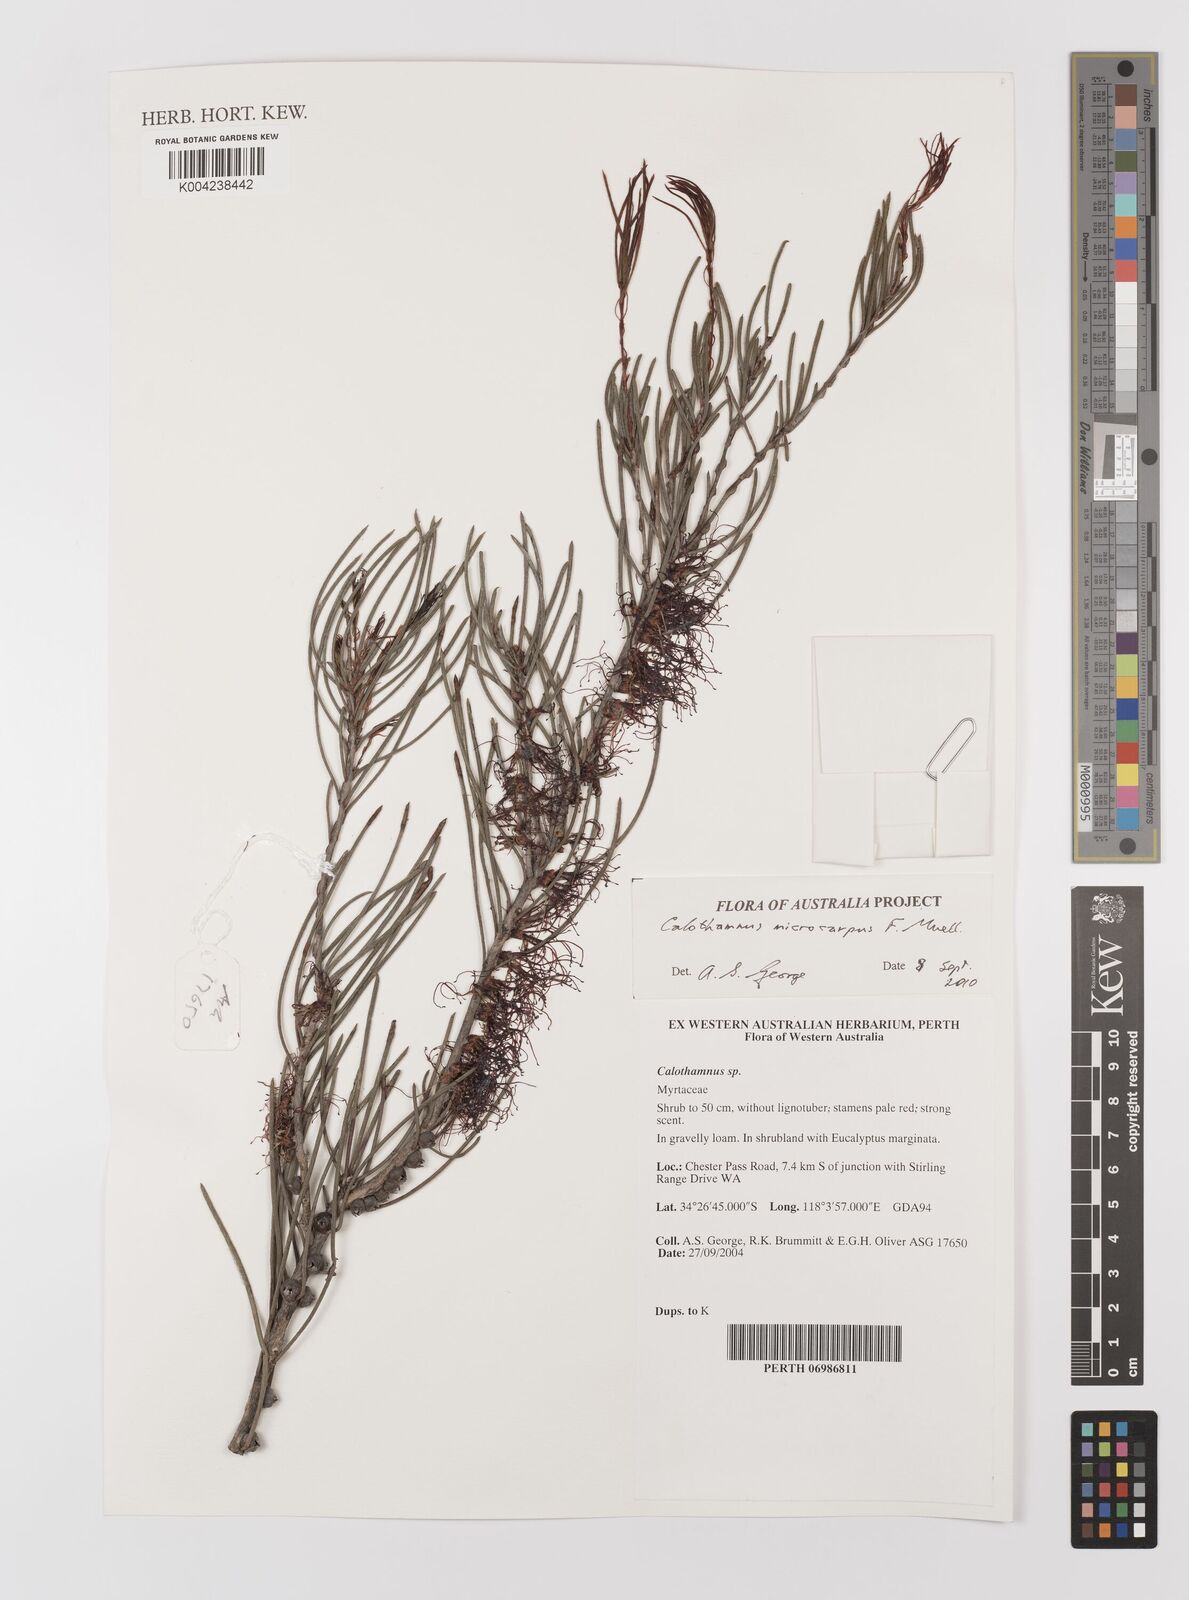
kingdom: Plantae
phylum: Tracheophyta
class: Magnoliopsida
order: Myrtales
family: Myrtaceae
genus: Melaleuca
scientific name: Melaleuca microcarpa
